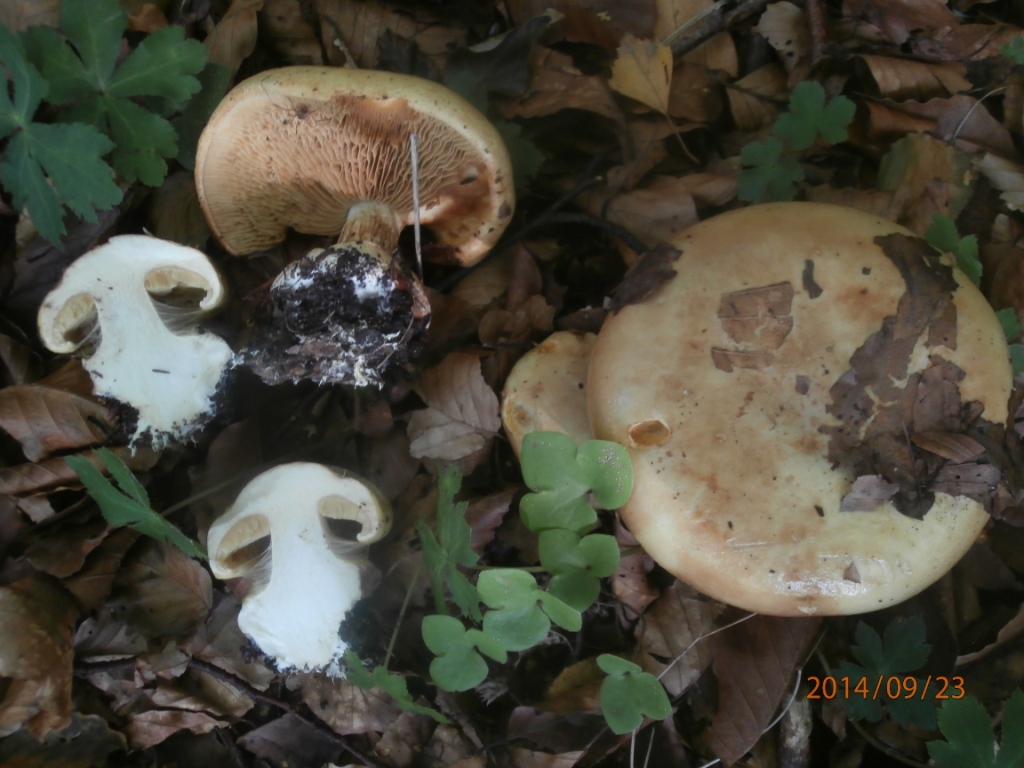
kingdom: Fungi
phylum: Basidiomycota
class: Agaricomycetes
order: Agaricales
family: Cortinariaceae
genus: Calonarius
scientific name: Calonarius humolens
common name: radise-slørhat
